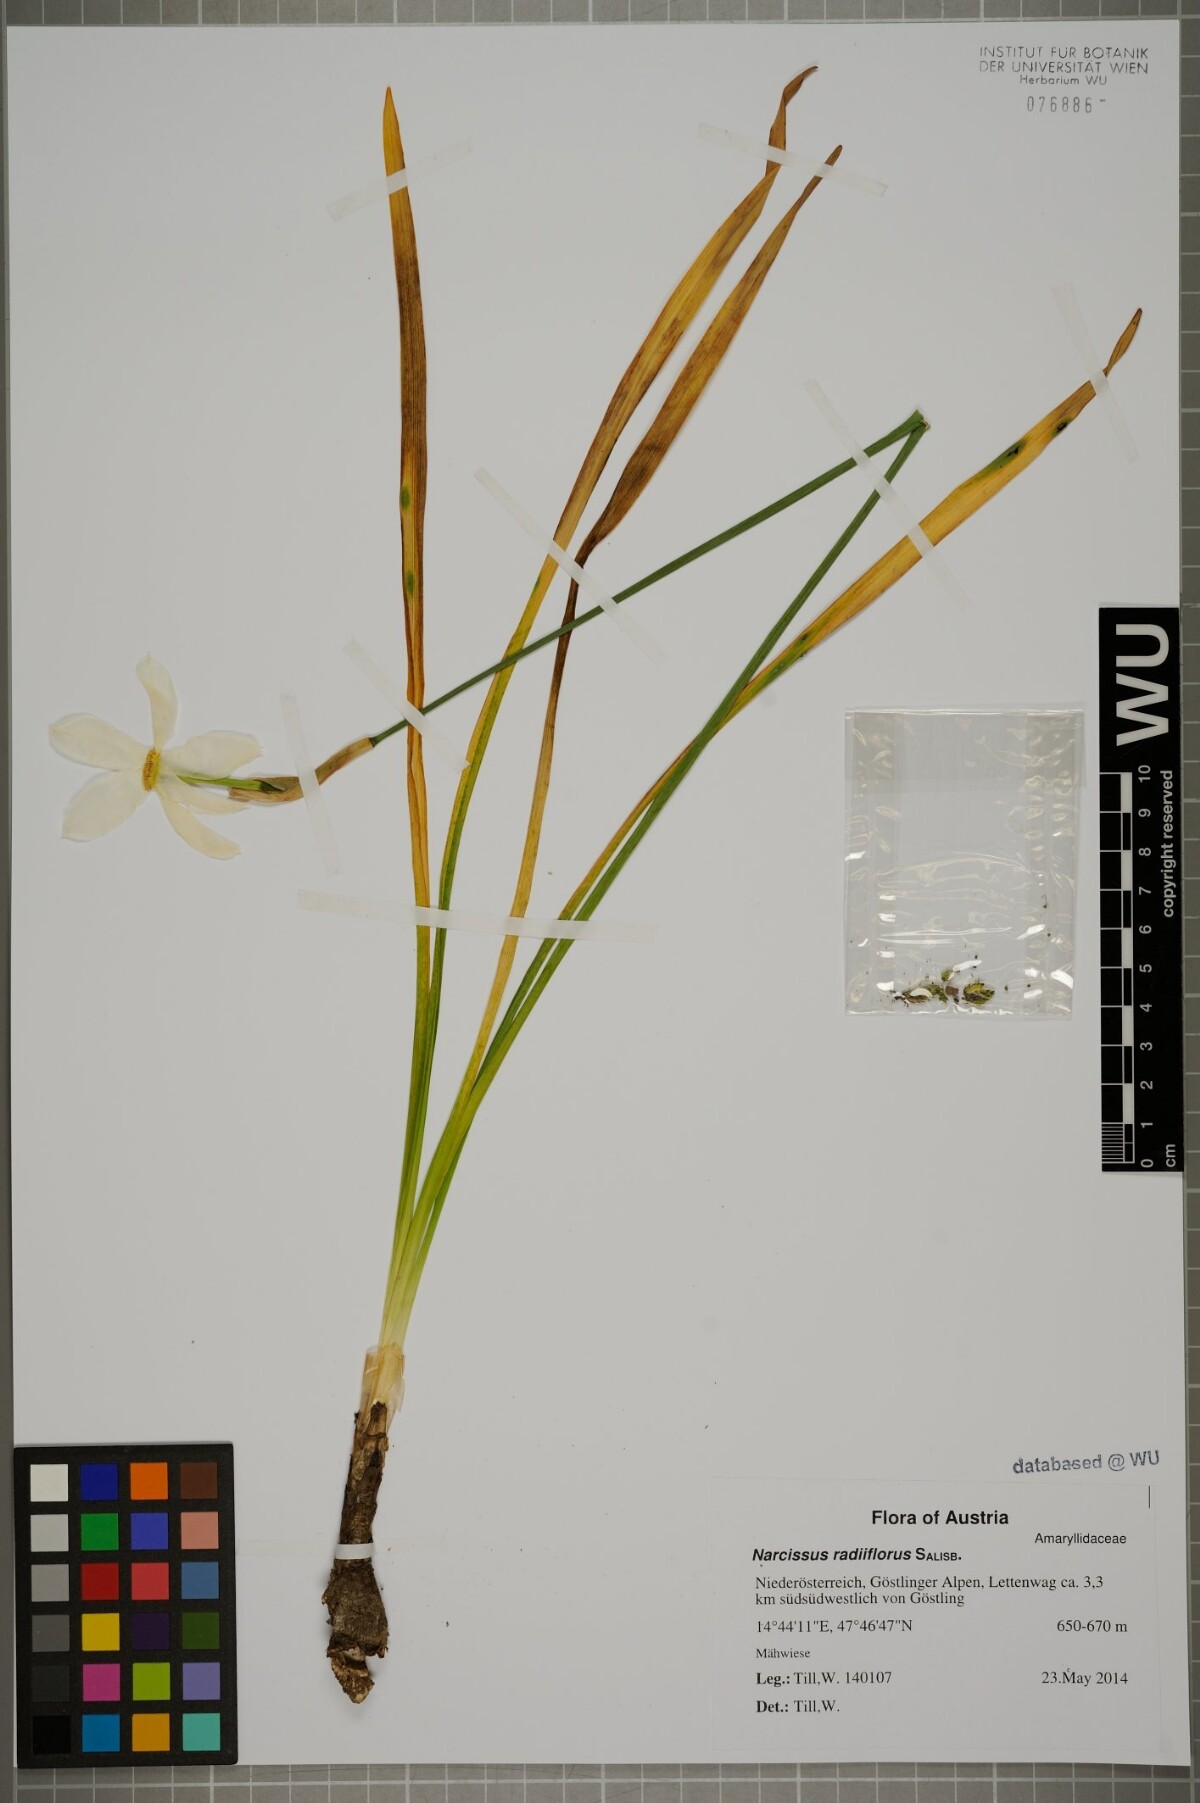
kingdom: Plantae
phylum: Tracheophyta
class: Liliopsida
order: Asparagales
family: Amaryllidaceae
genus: Narcissus
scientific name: Narcissus poeticus
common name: Pheasant's-eye daffodil
